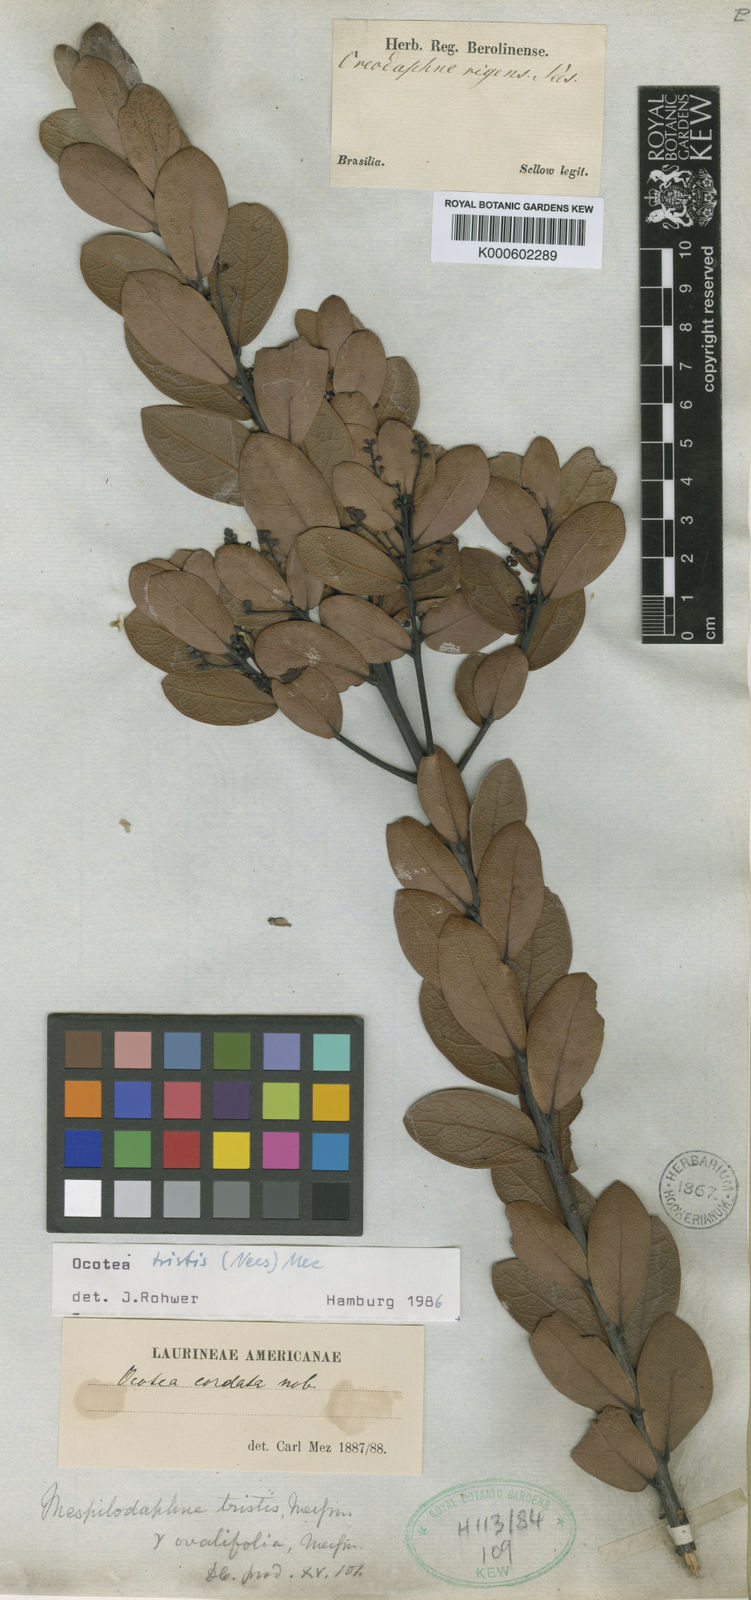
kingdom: Plantae
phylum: Tracheophyta
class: Magnoliopsida
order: Laurales
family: Lauraceae
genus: Mespilodaphne
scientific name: Mespilodaphne tristis
